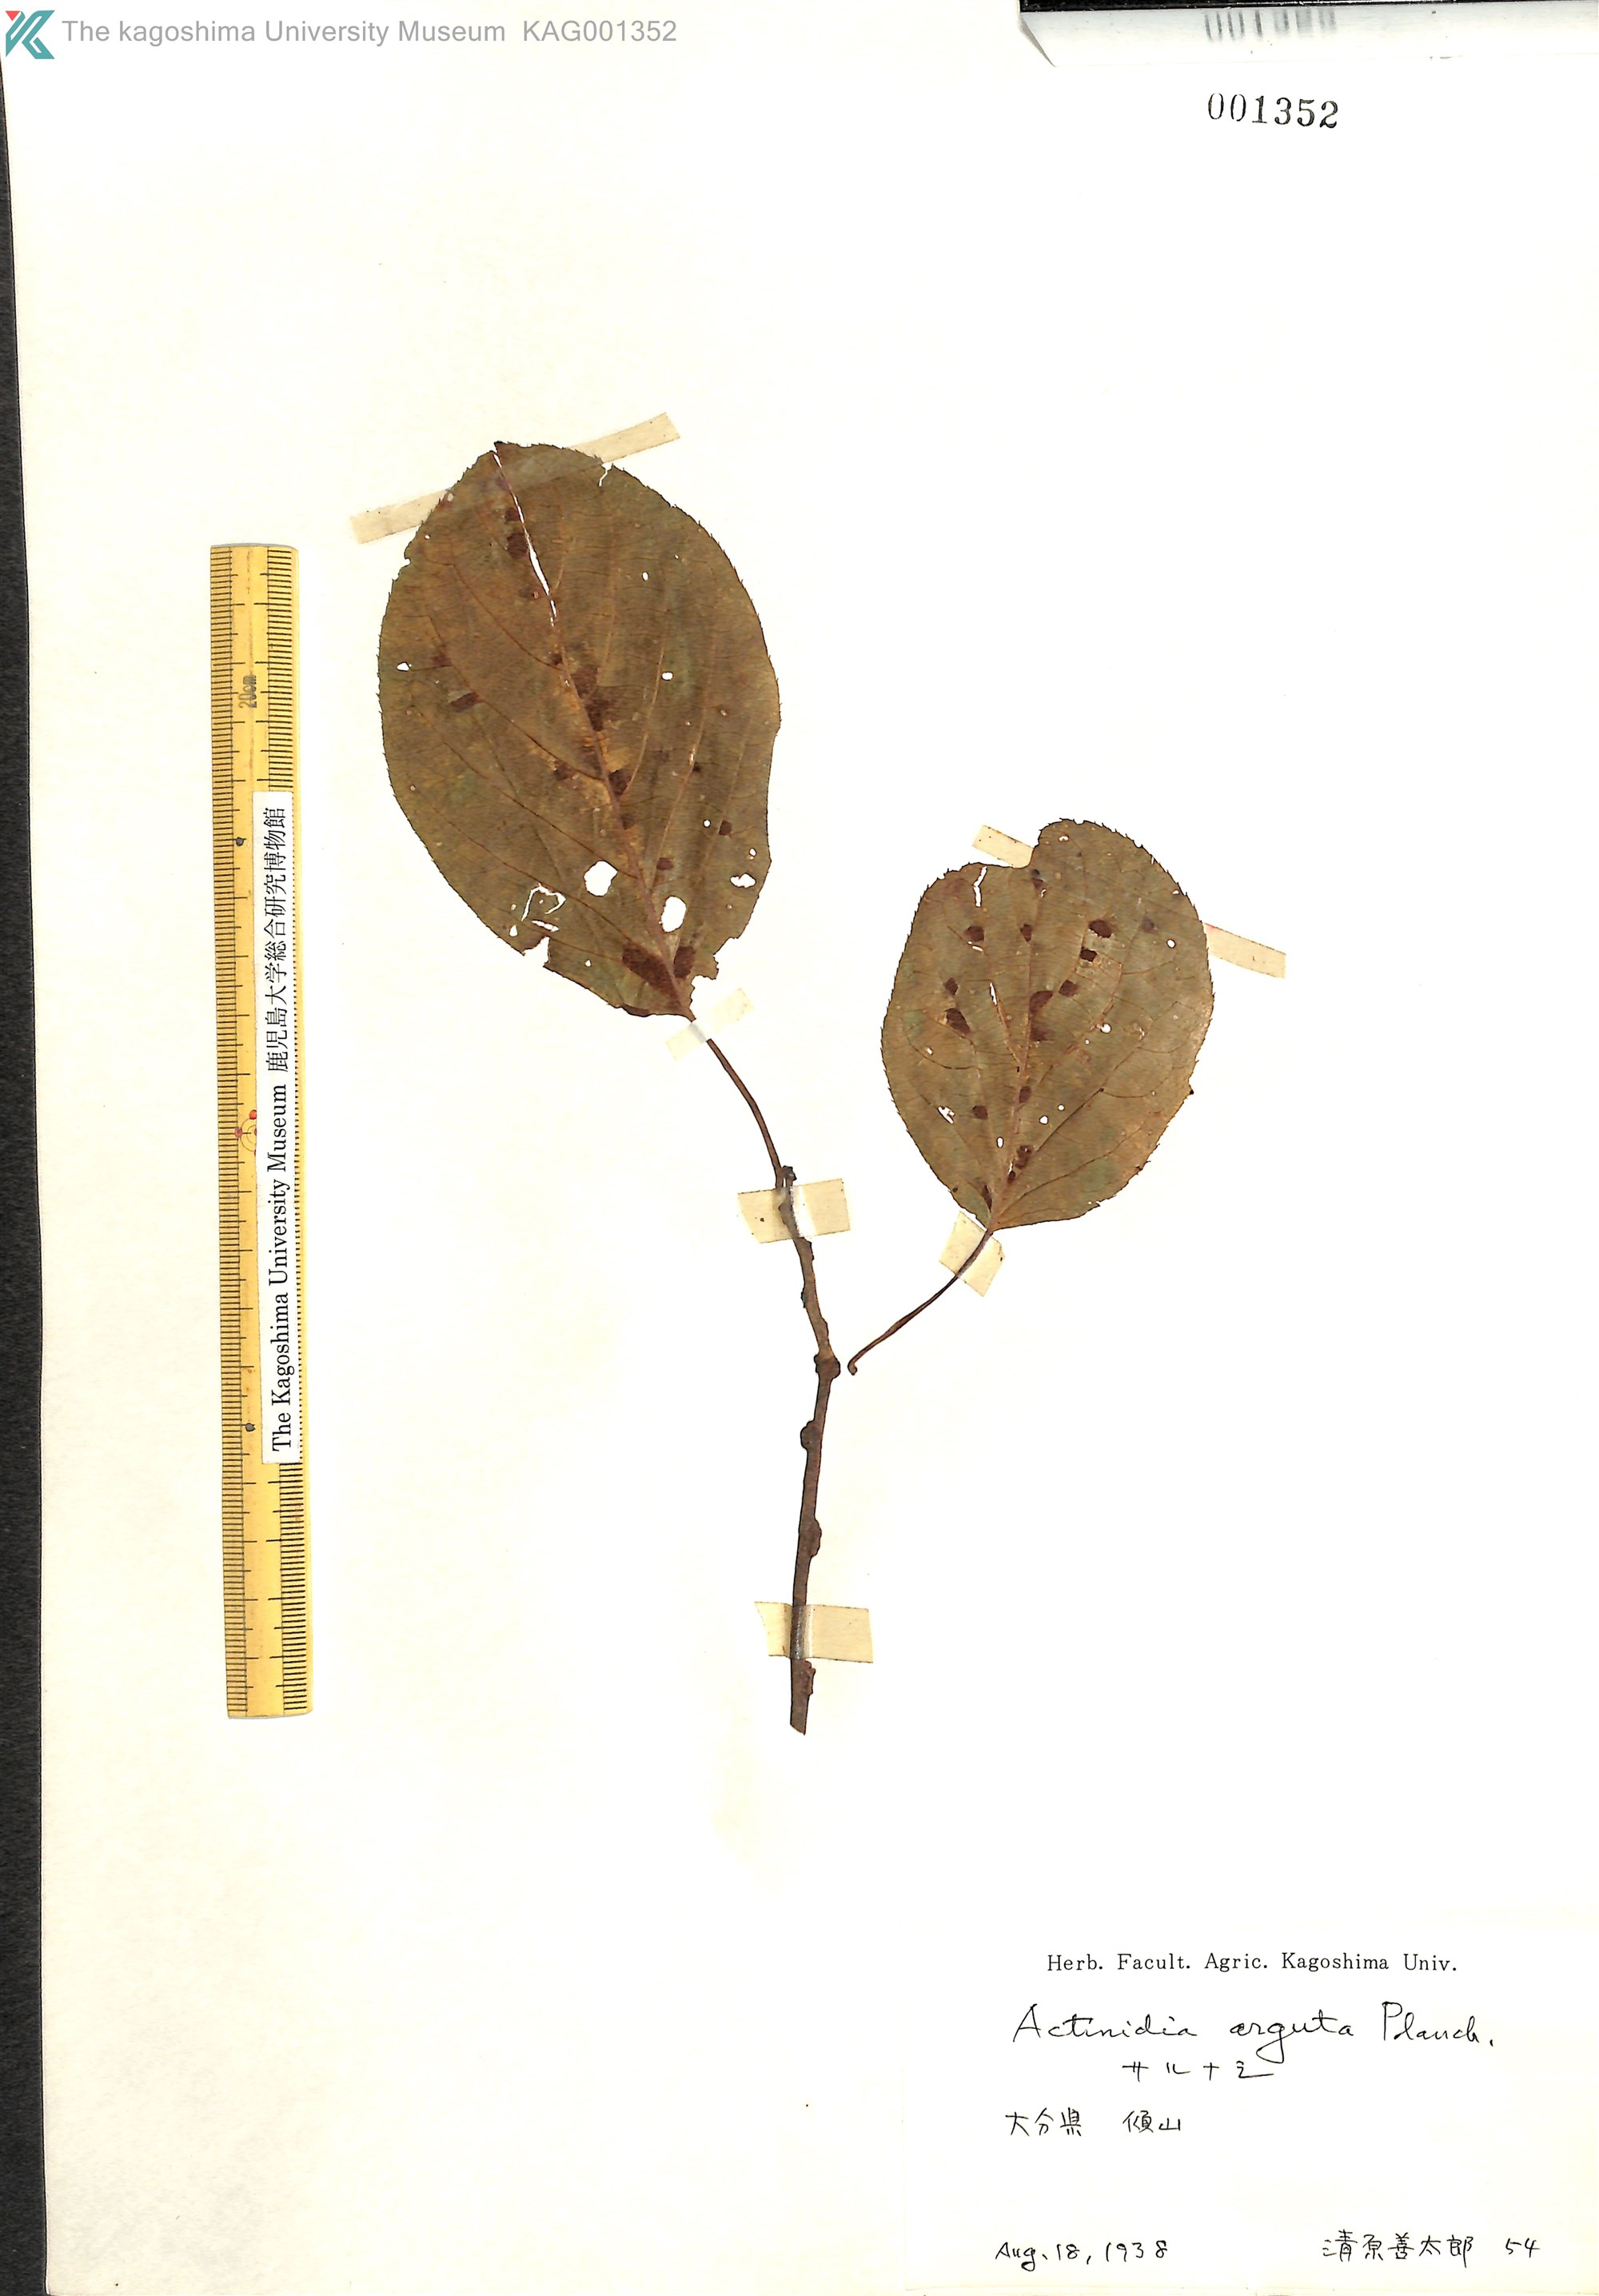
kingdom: Plantae
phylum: Tracheophyta
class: Magnoliopsida
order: Ericales
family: Actinidiaceae
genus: Actinidia
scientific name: Actinidia arguta
